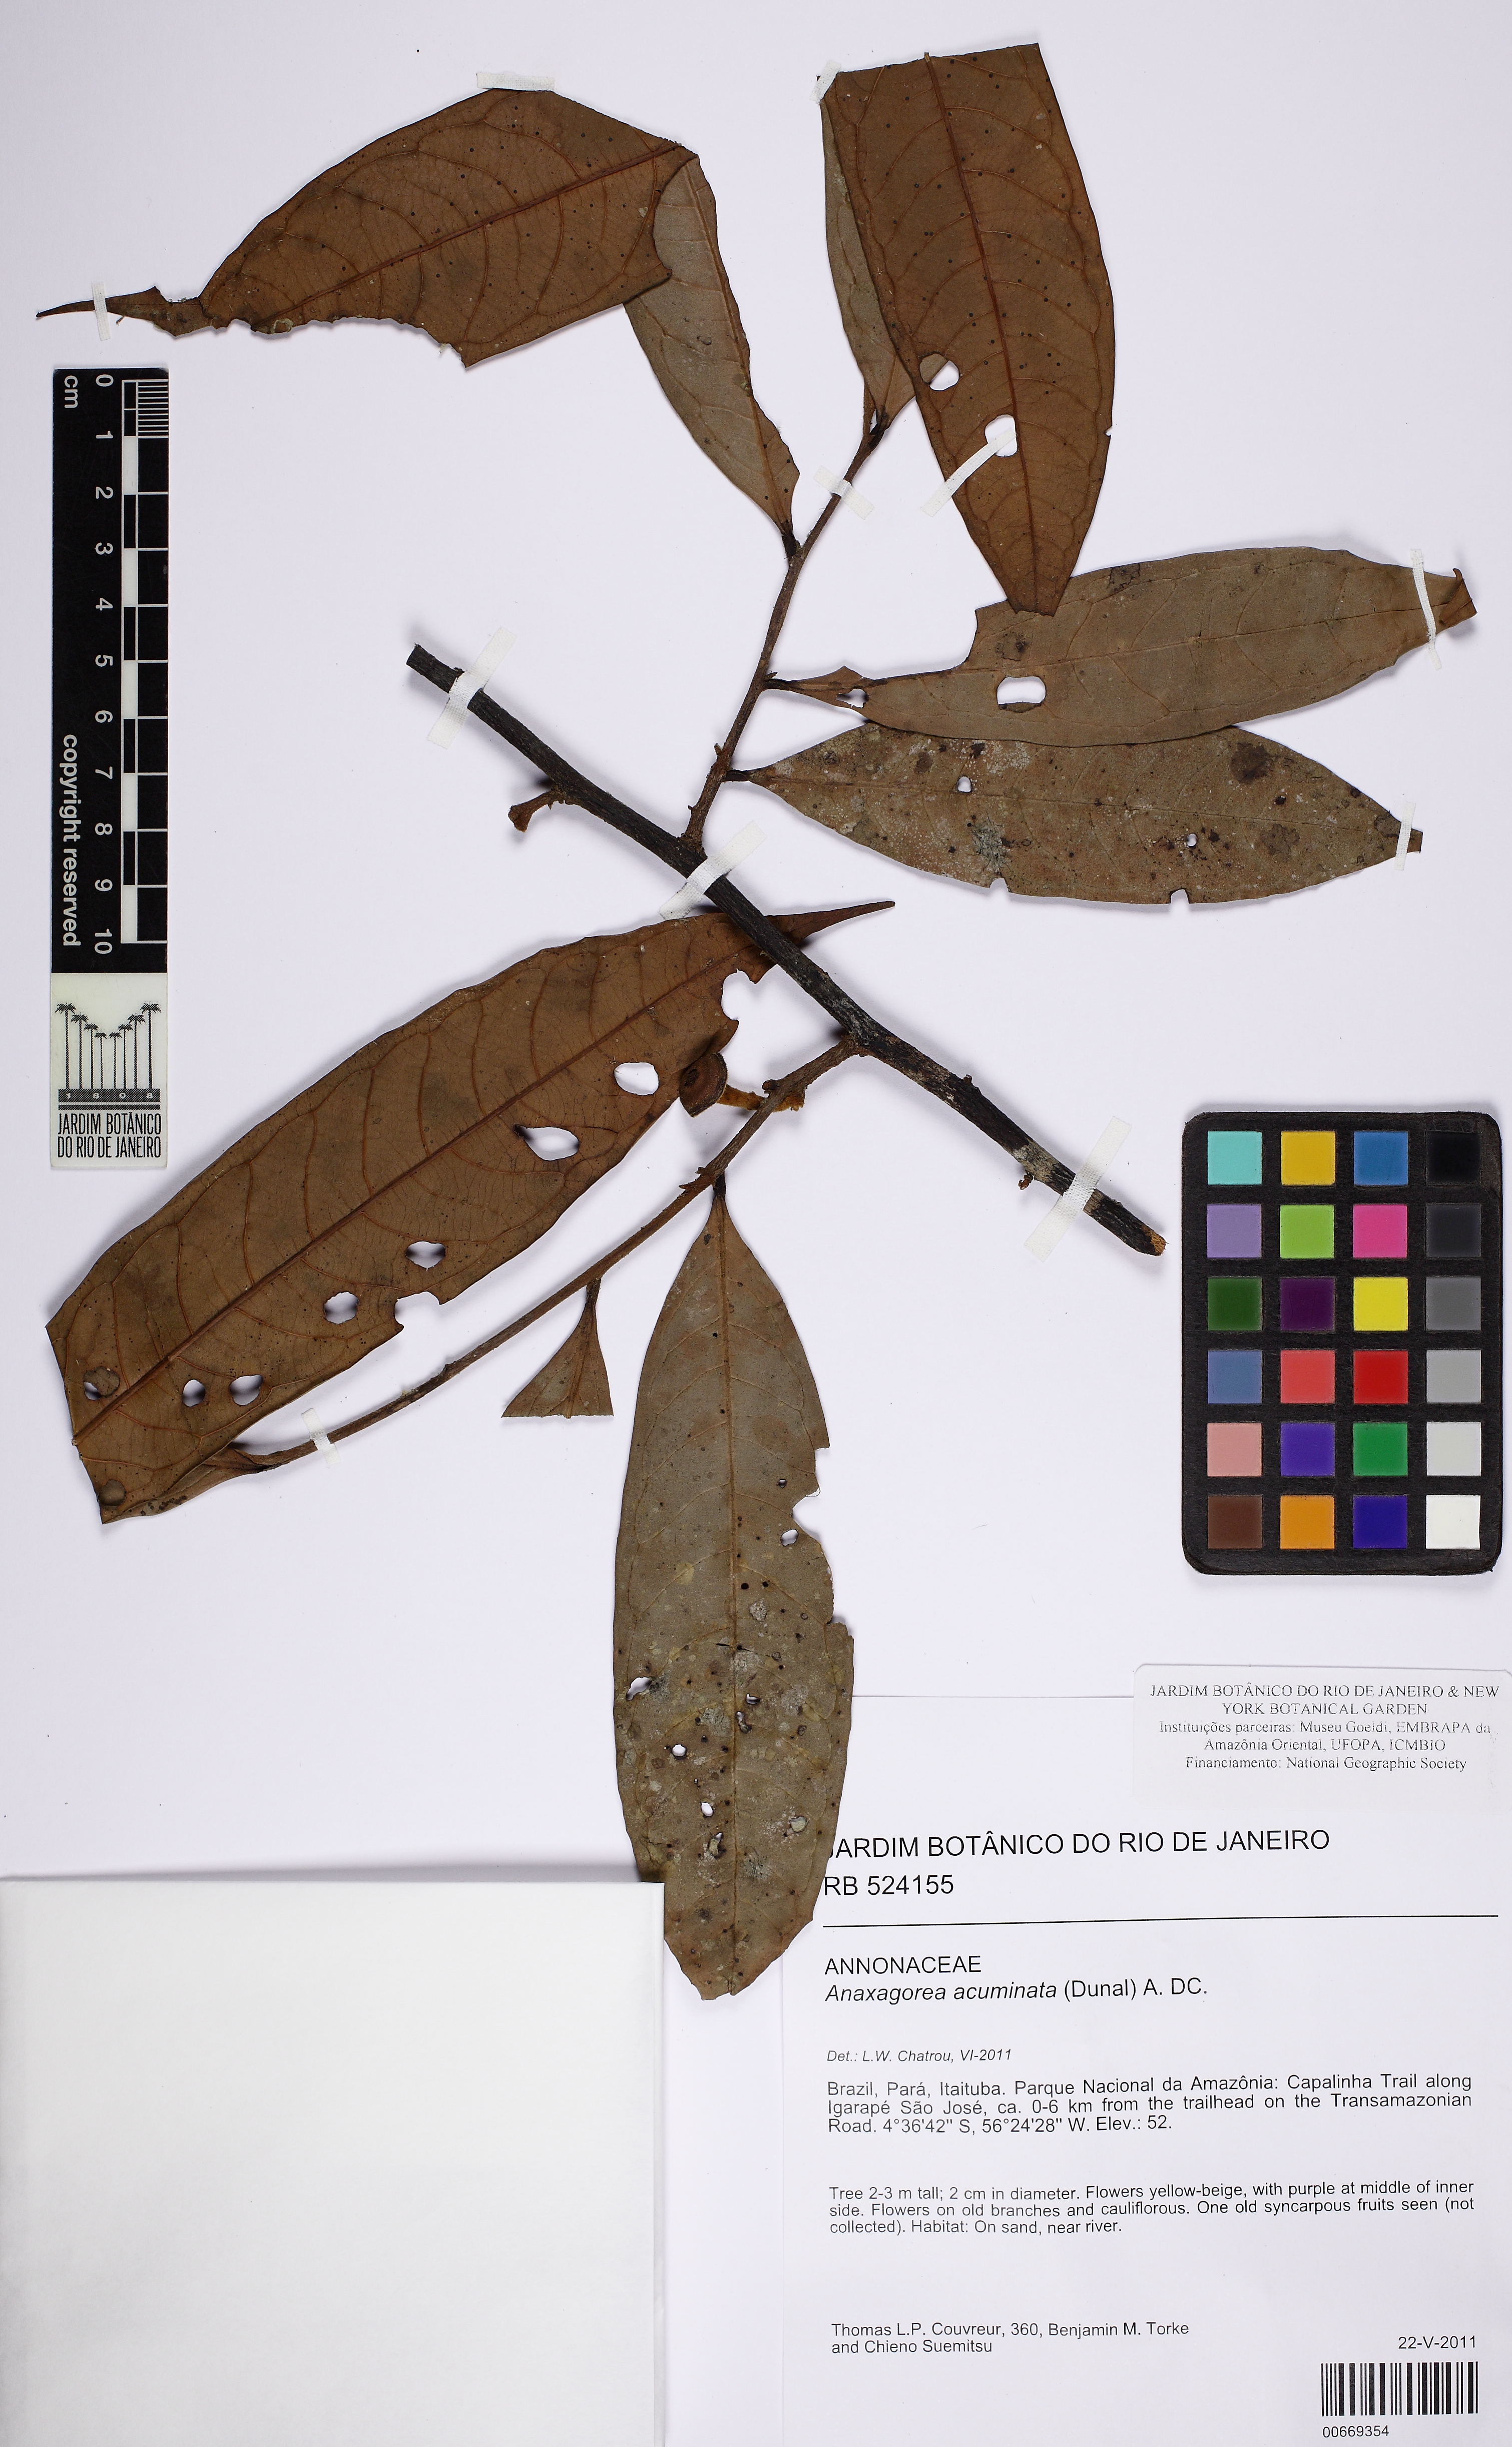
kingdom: Plantae
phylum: Tracheophyta
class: Magnoliopsida
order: Magnoliales
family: Annonaceae
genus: Fusaea
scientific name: Fusaea longifolia
